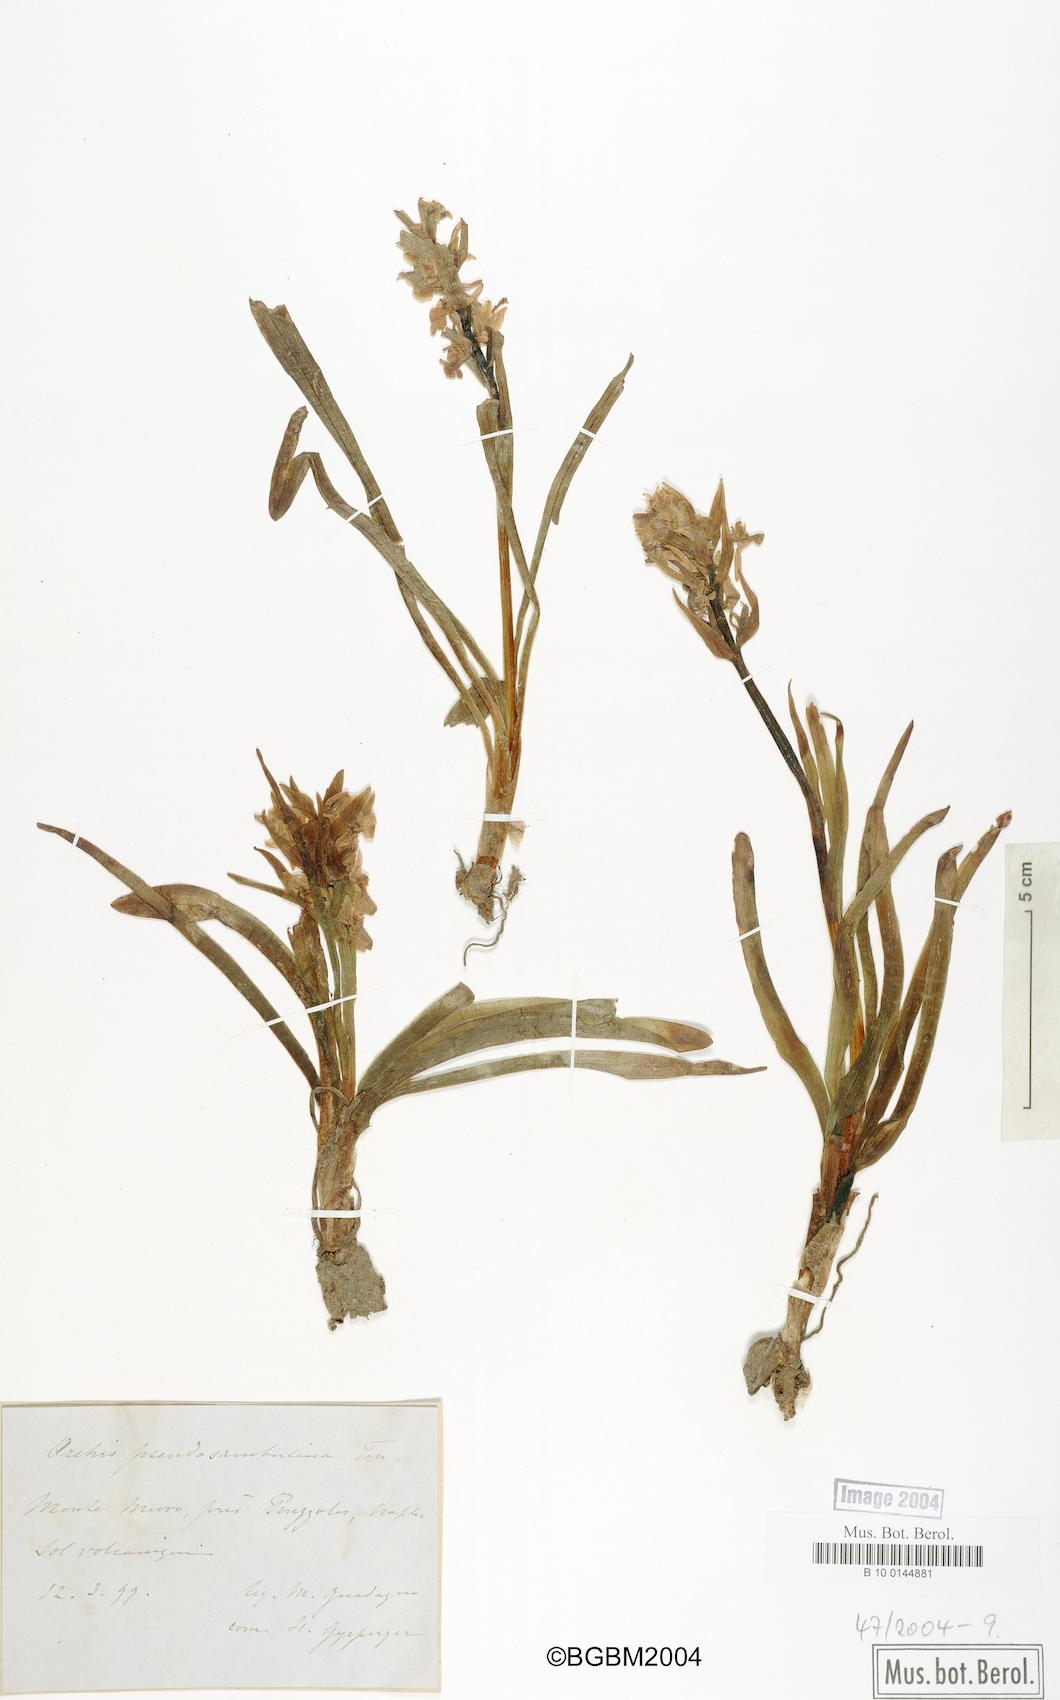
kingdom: Plantae
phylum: Tracheophyta
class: Liliopsida
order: Asparagales
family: Orchidaceae
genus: Dactylorhiza
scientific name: Dactylorhiza romana
